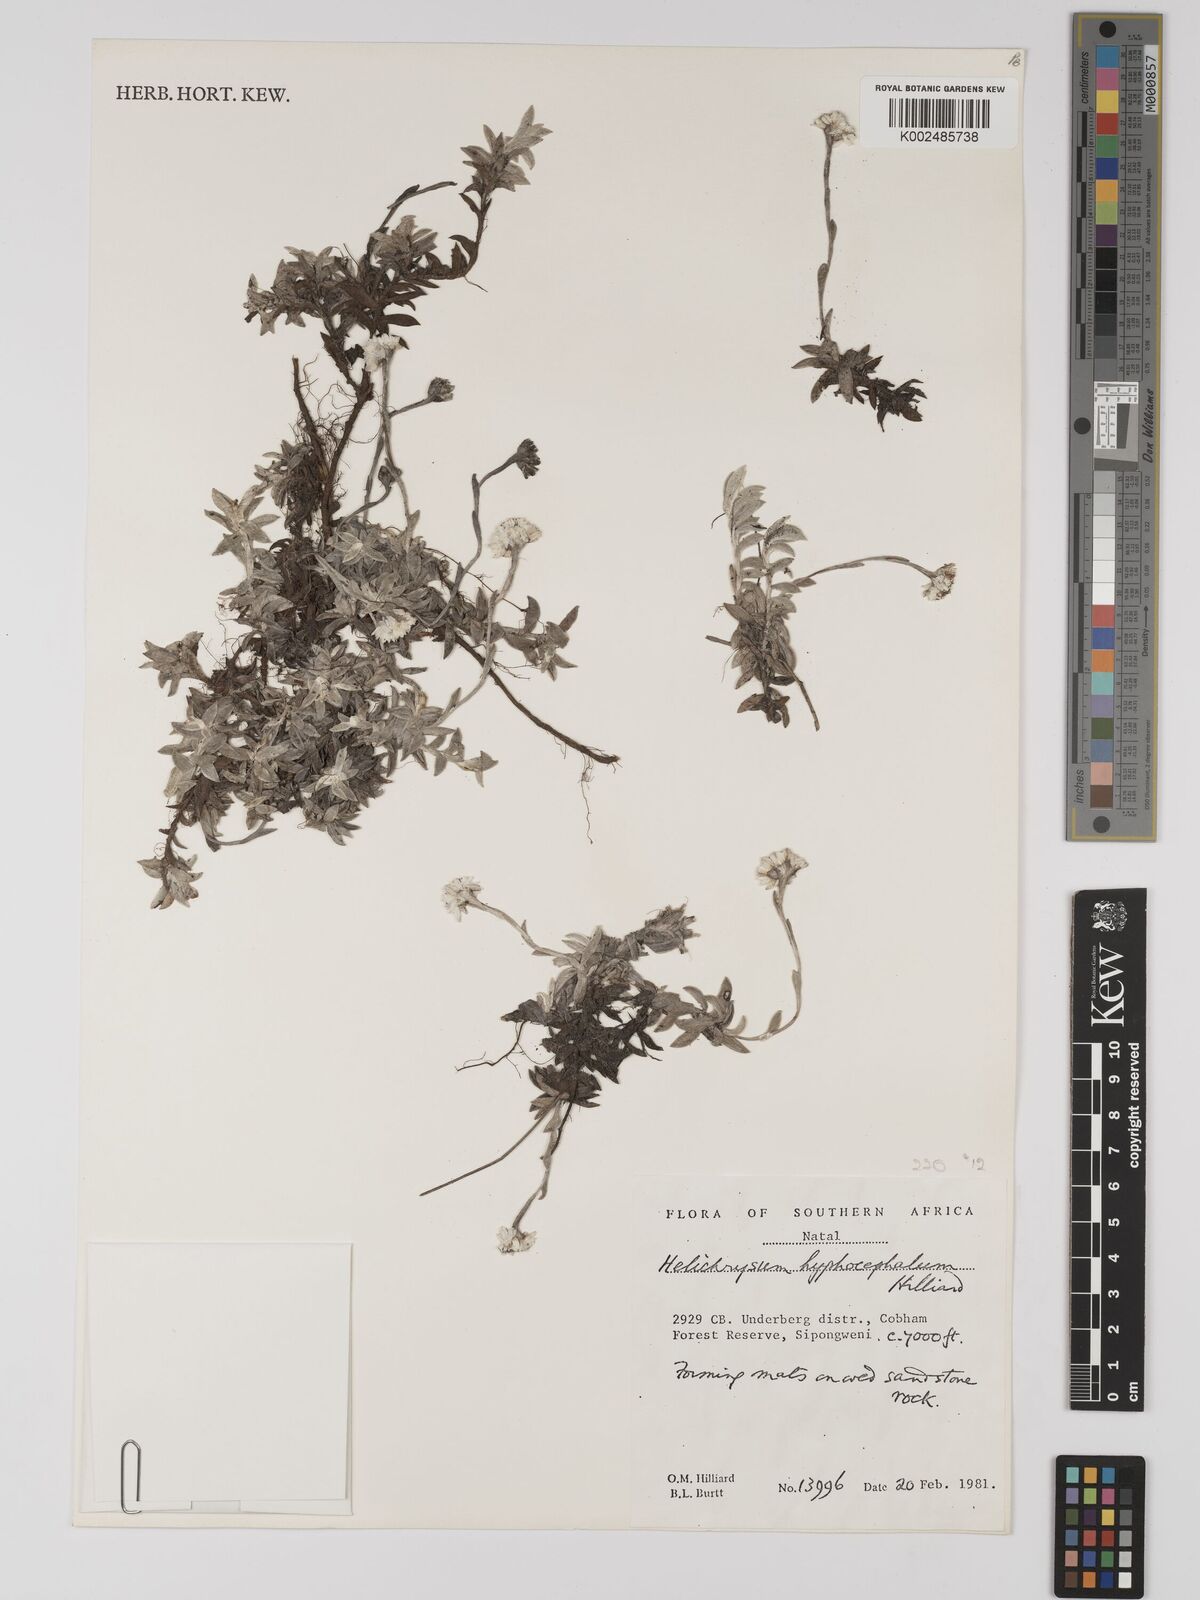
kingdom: Plantae
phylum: Tracheophyta
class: Magnoliopsida
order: Asterales
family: Asteraceae
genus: Helichrysum
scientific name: Helichrysum hyphocephalum
